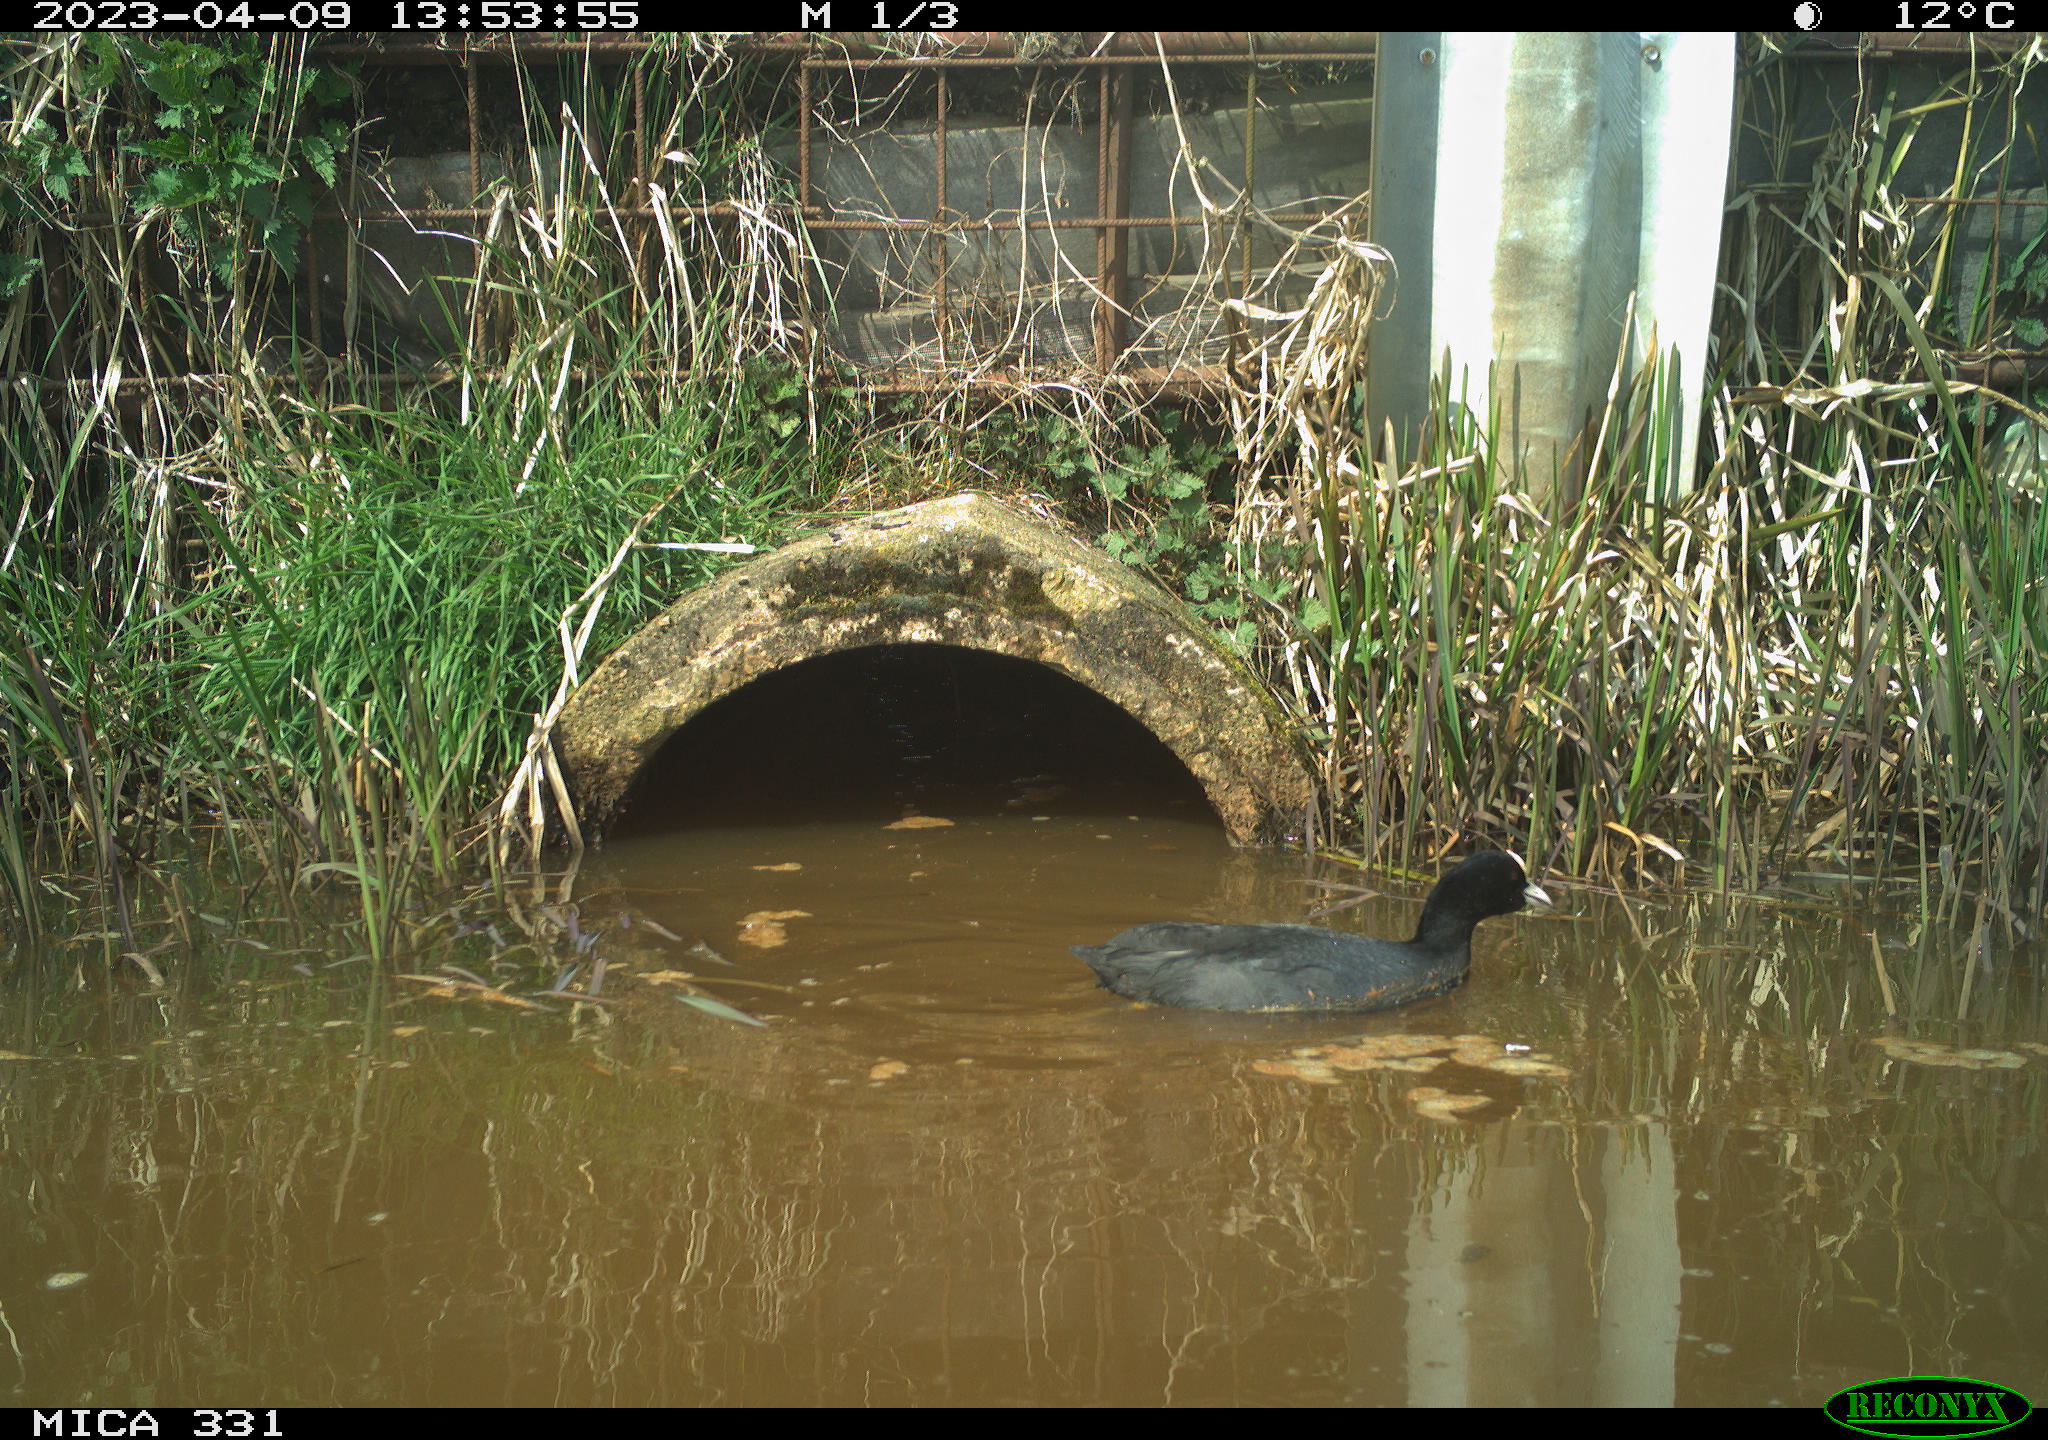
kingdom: Animalia
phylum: Chordata
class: Aves
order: Gruiformes
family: Rallidae
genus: Fulica
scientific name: Fulica atra
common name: Eurasian coot
